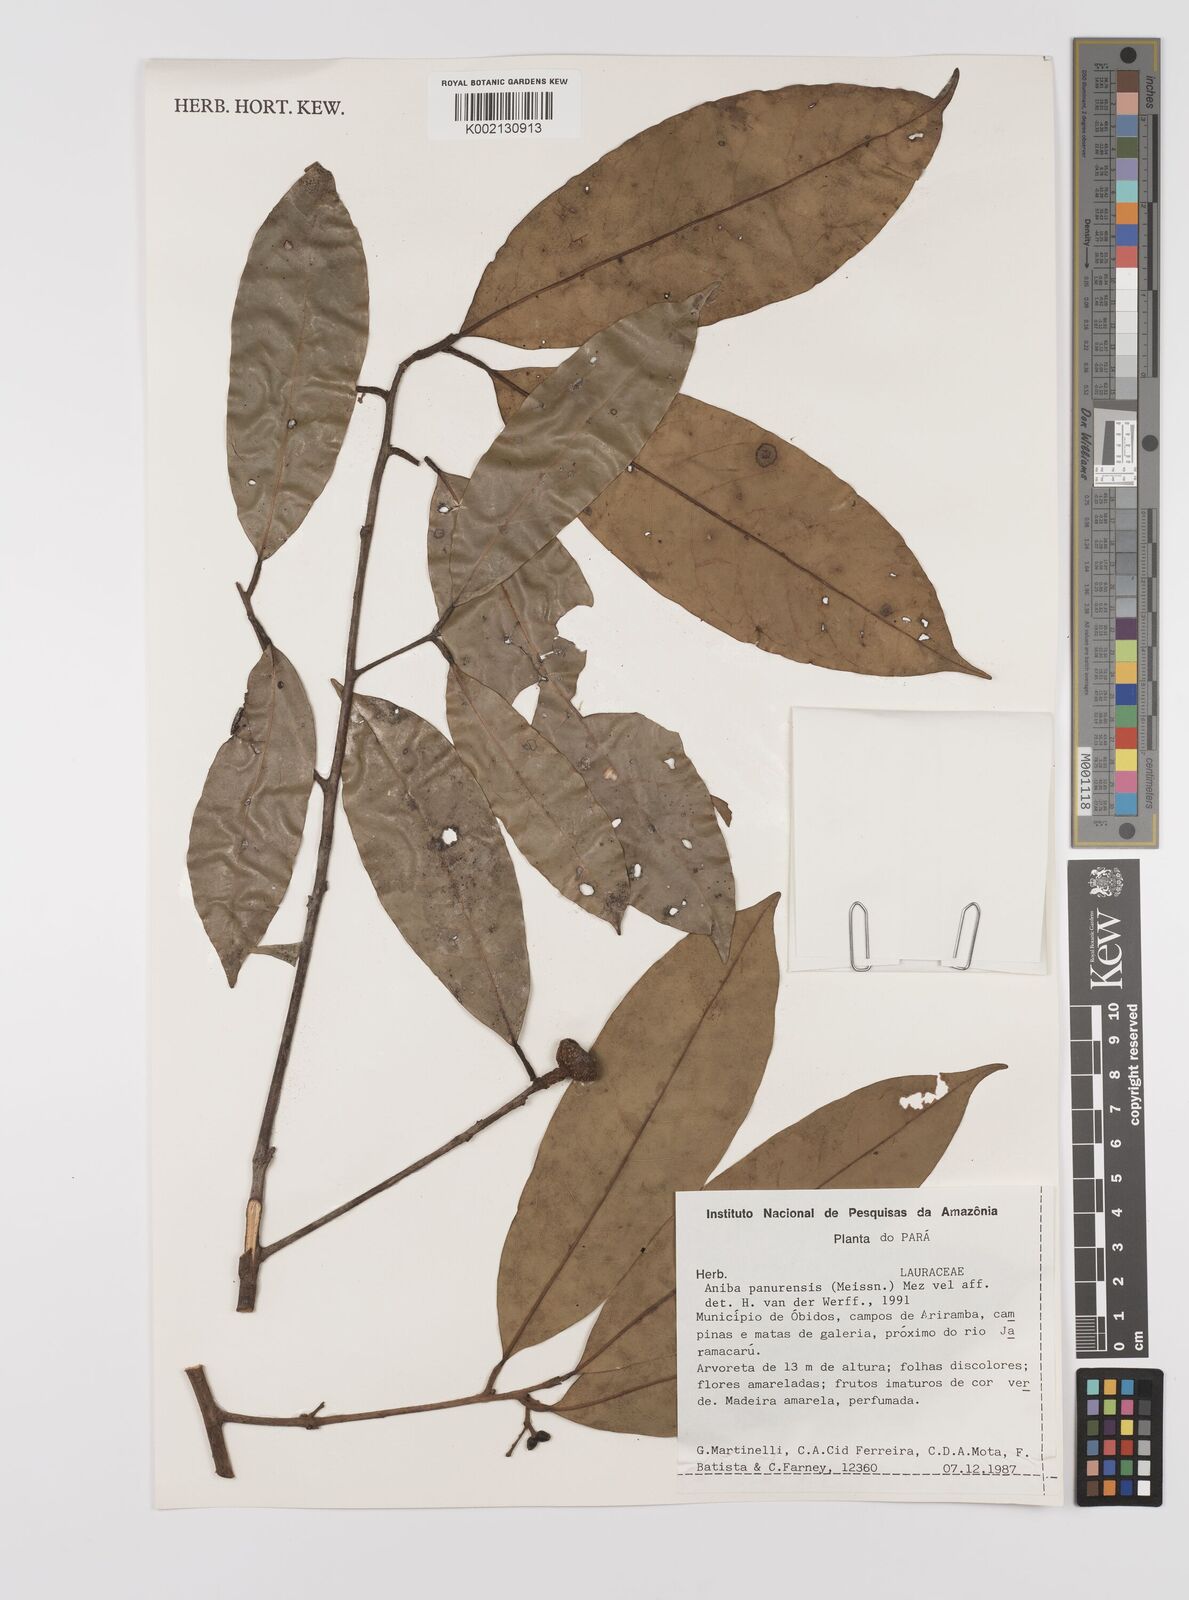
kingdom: Plantae
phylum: Tracheophyta
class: Magnoliopsida
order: Laurales
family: Lauraceae
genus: Aniba
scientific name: Aniba panurensis
